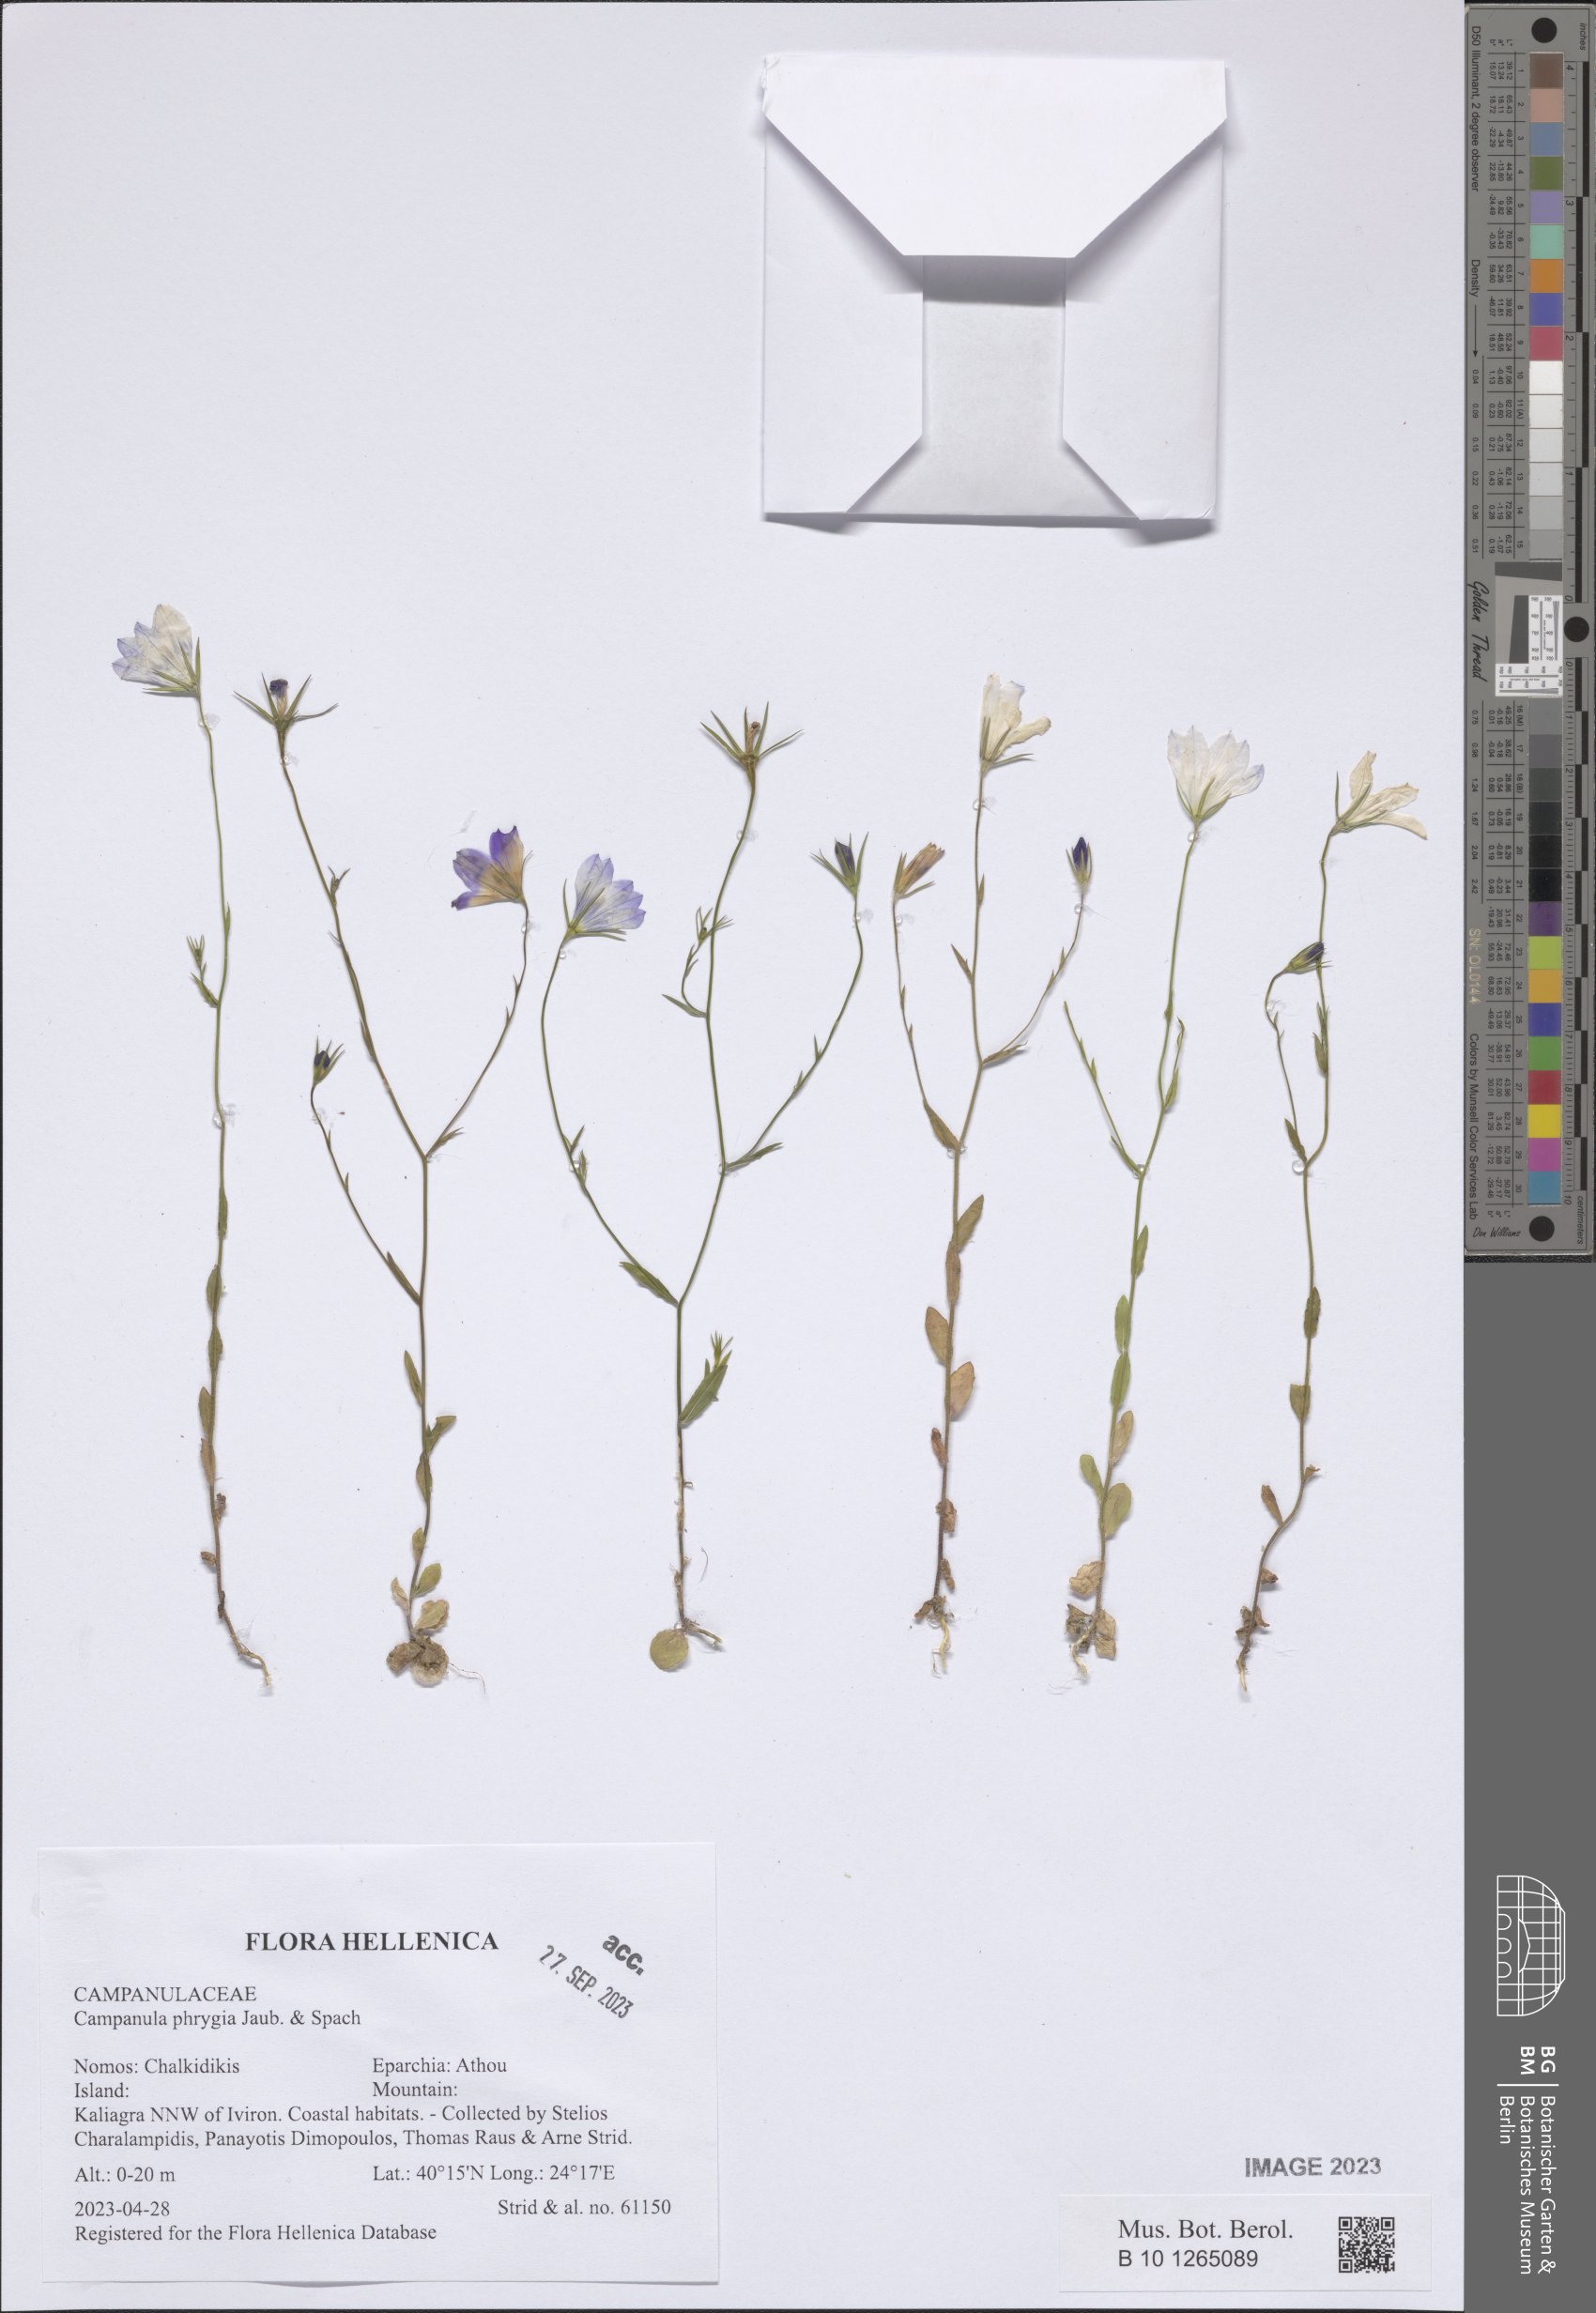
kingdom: Plantae
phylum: Tracheophyta
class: Magnoliopsida
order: Asterales
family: Campanulaceae
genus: Campanula
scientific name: Campanula phrygia
